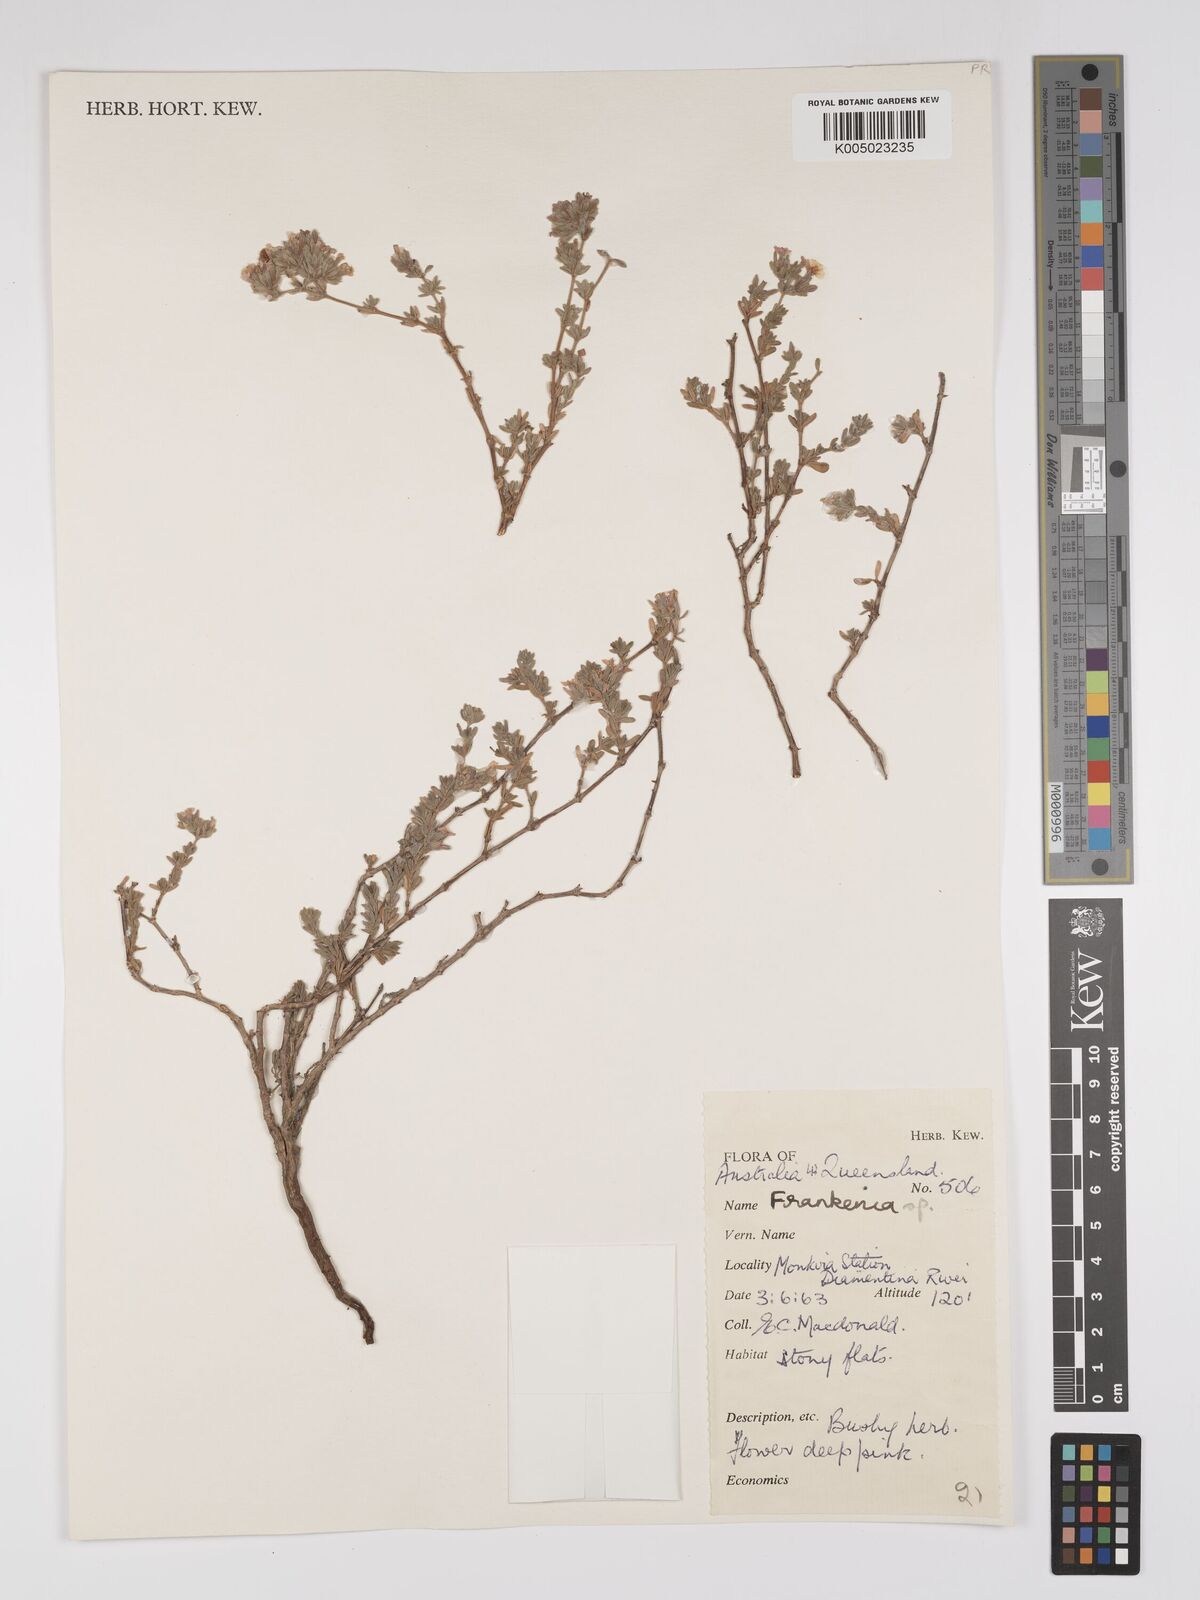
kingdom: Plantae
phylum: Tracheophyta
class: Magnoliopsida
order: Caryophyllales
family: Frankeniaceae
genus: Frankenia
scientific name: Frankenia
